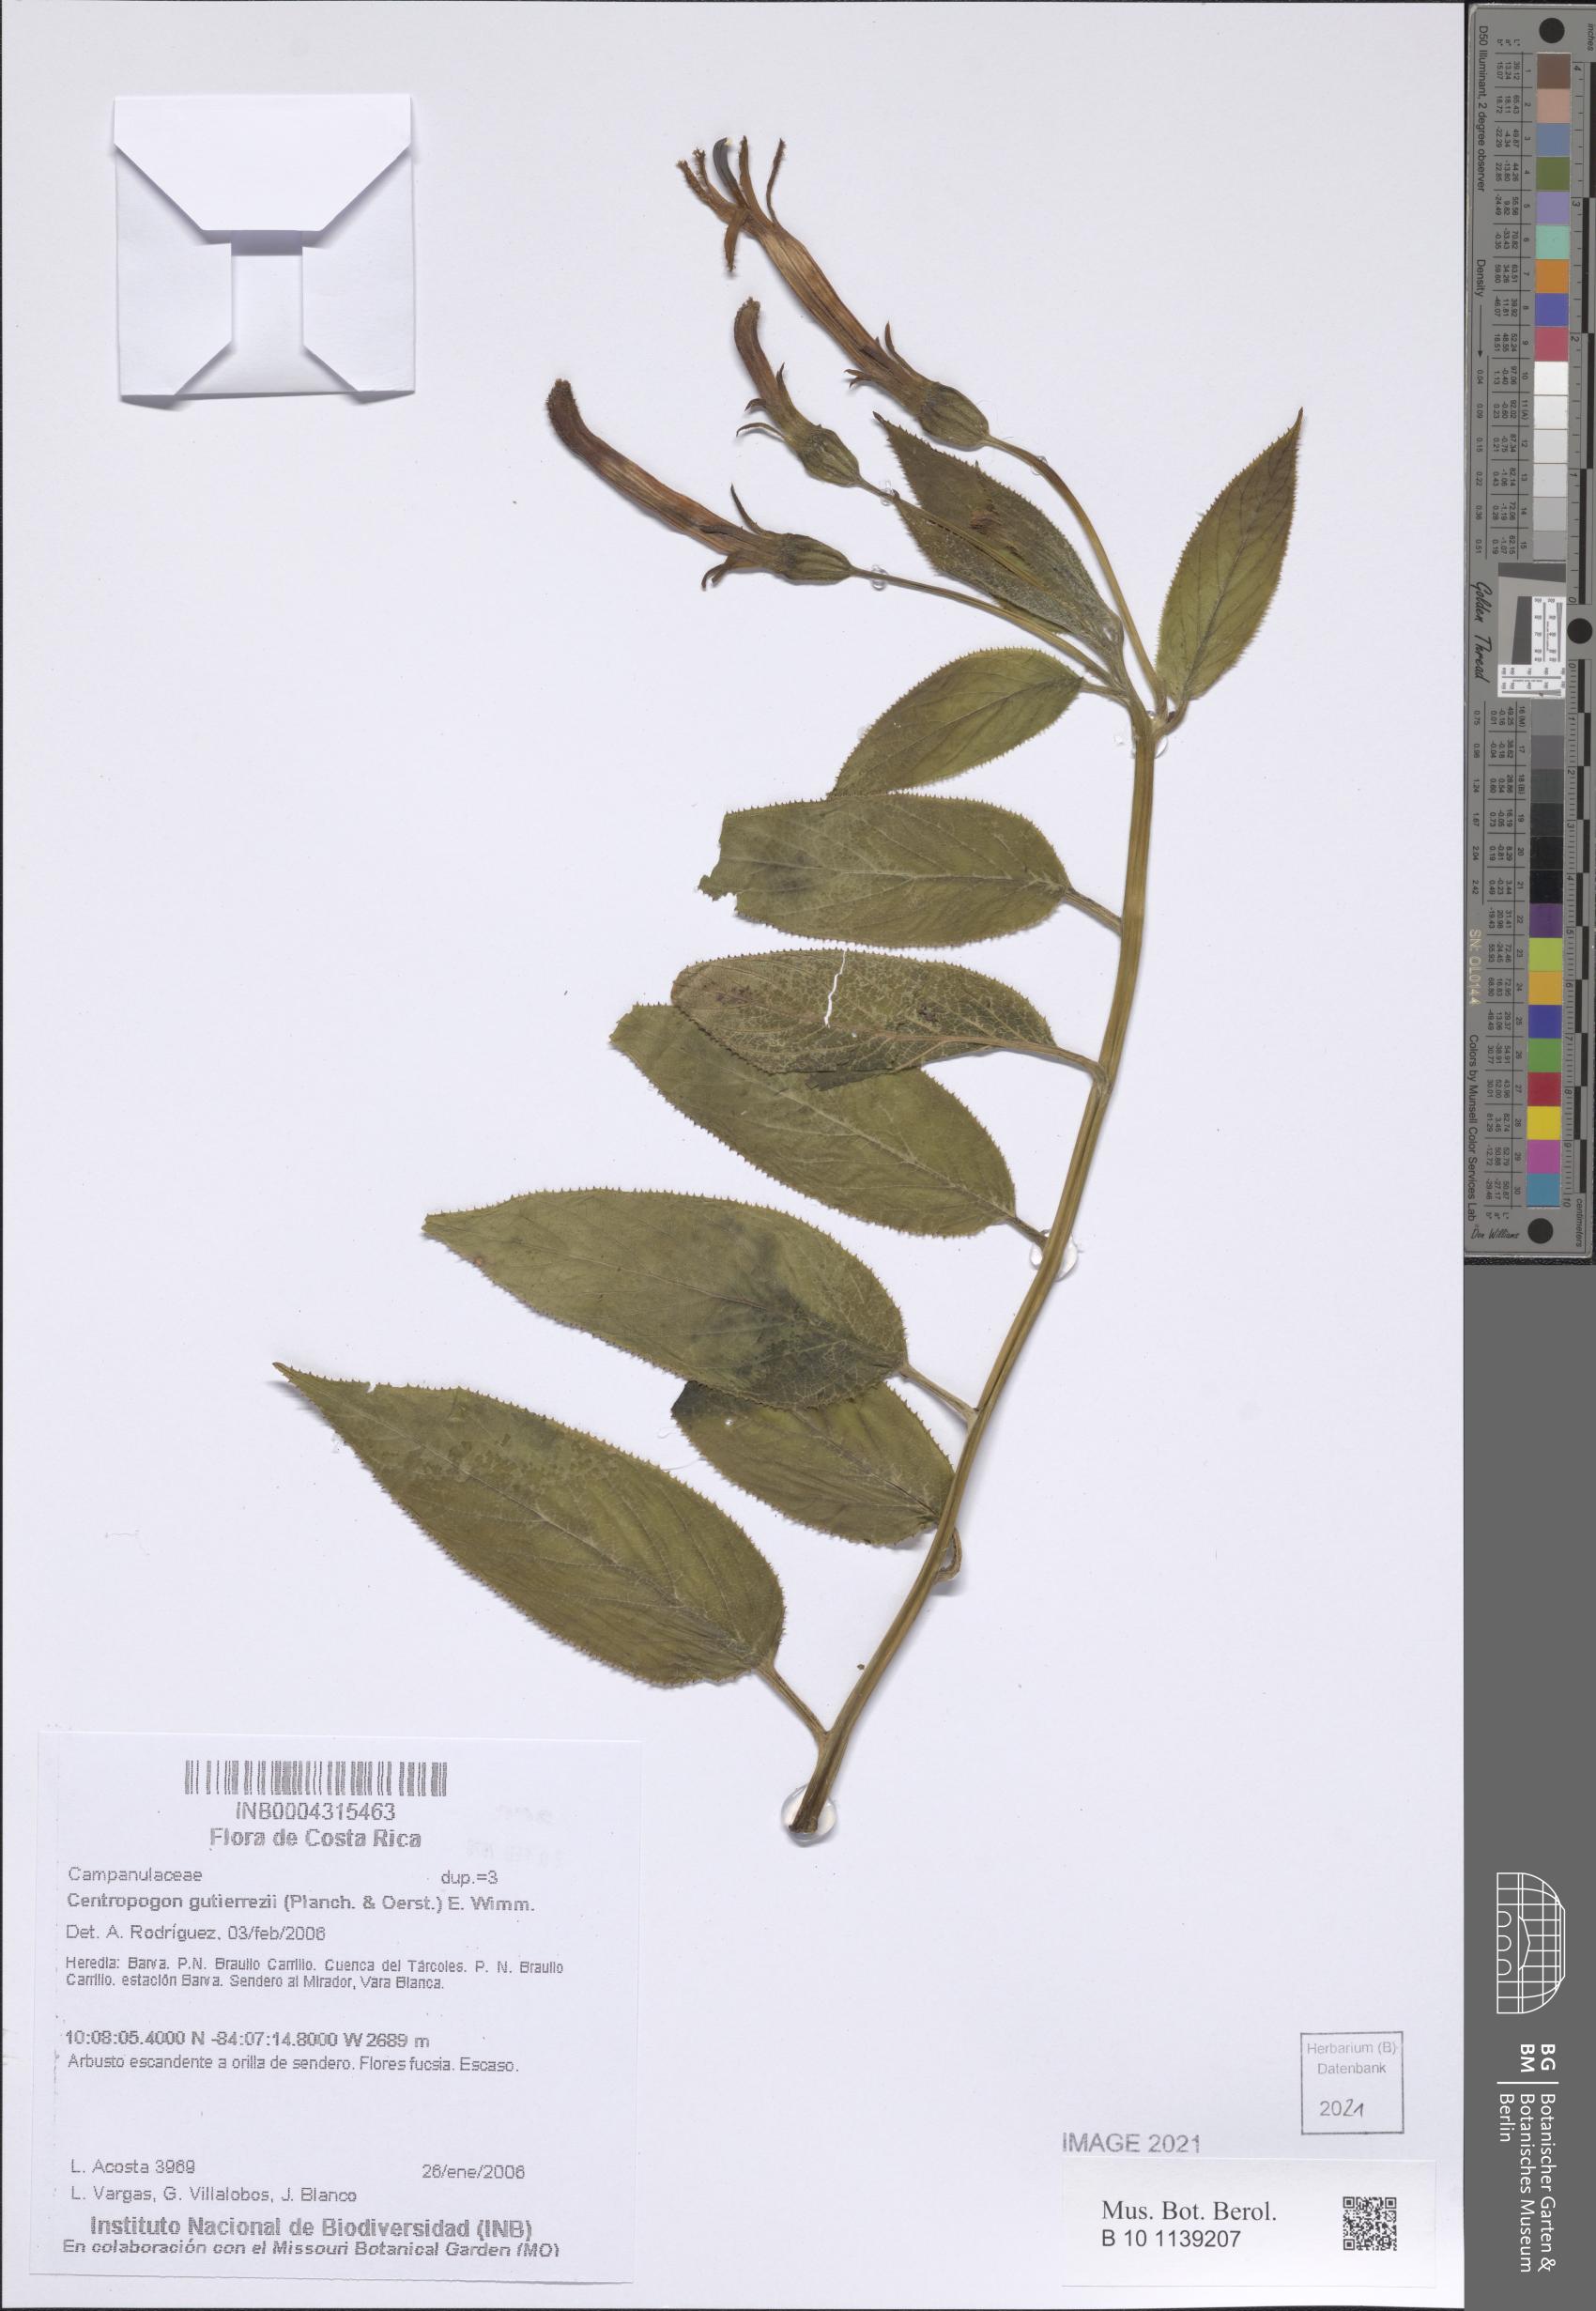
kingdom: Plantae
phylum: Tracheophyta
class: Magnoliopsida
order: Asterales
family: Campanulaceae
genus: Centropogon
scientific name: Centropogon gutierrezii
